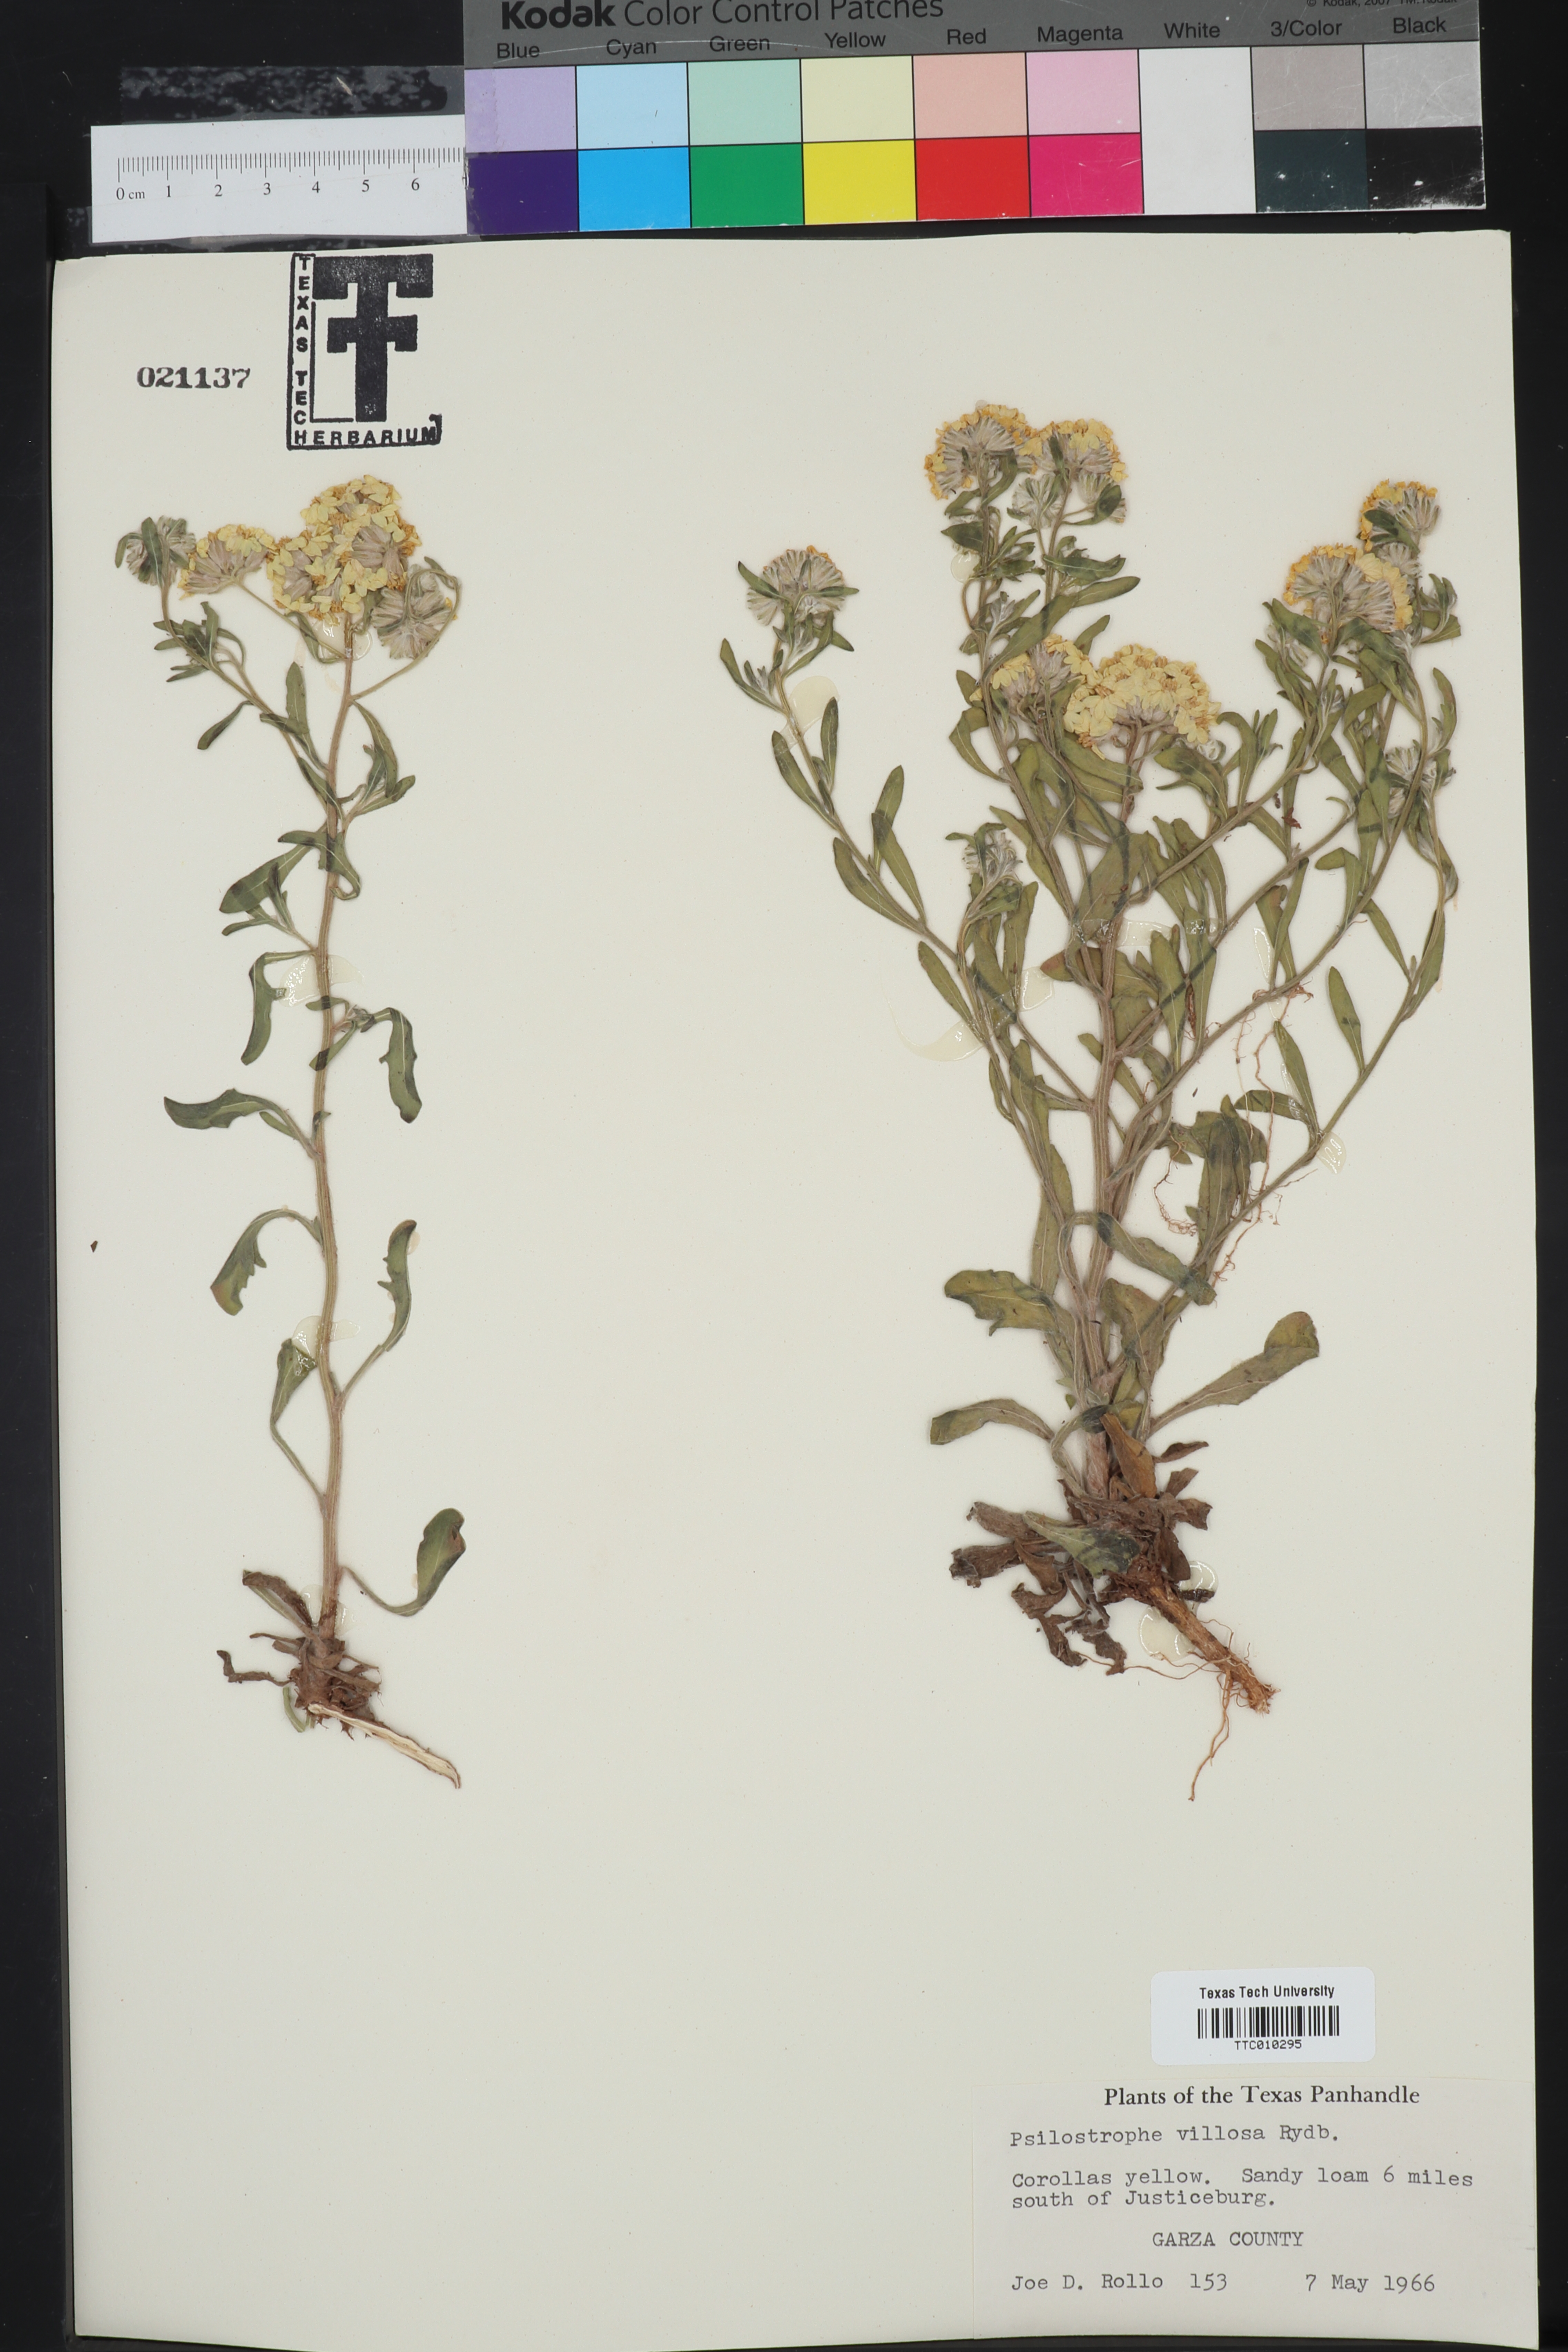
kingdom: Plantae
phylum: Tracheophyta
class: Magnoliopsida
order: Asterales
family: Asteraceae
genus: Psilostrophe
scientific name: Psilostrophe villosa
